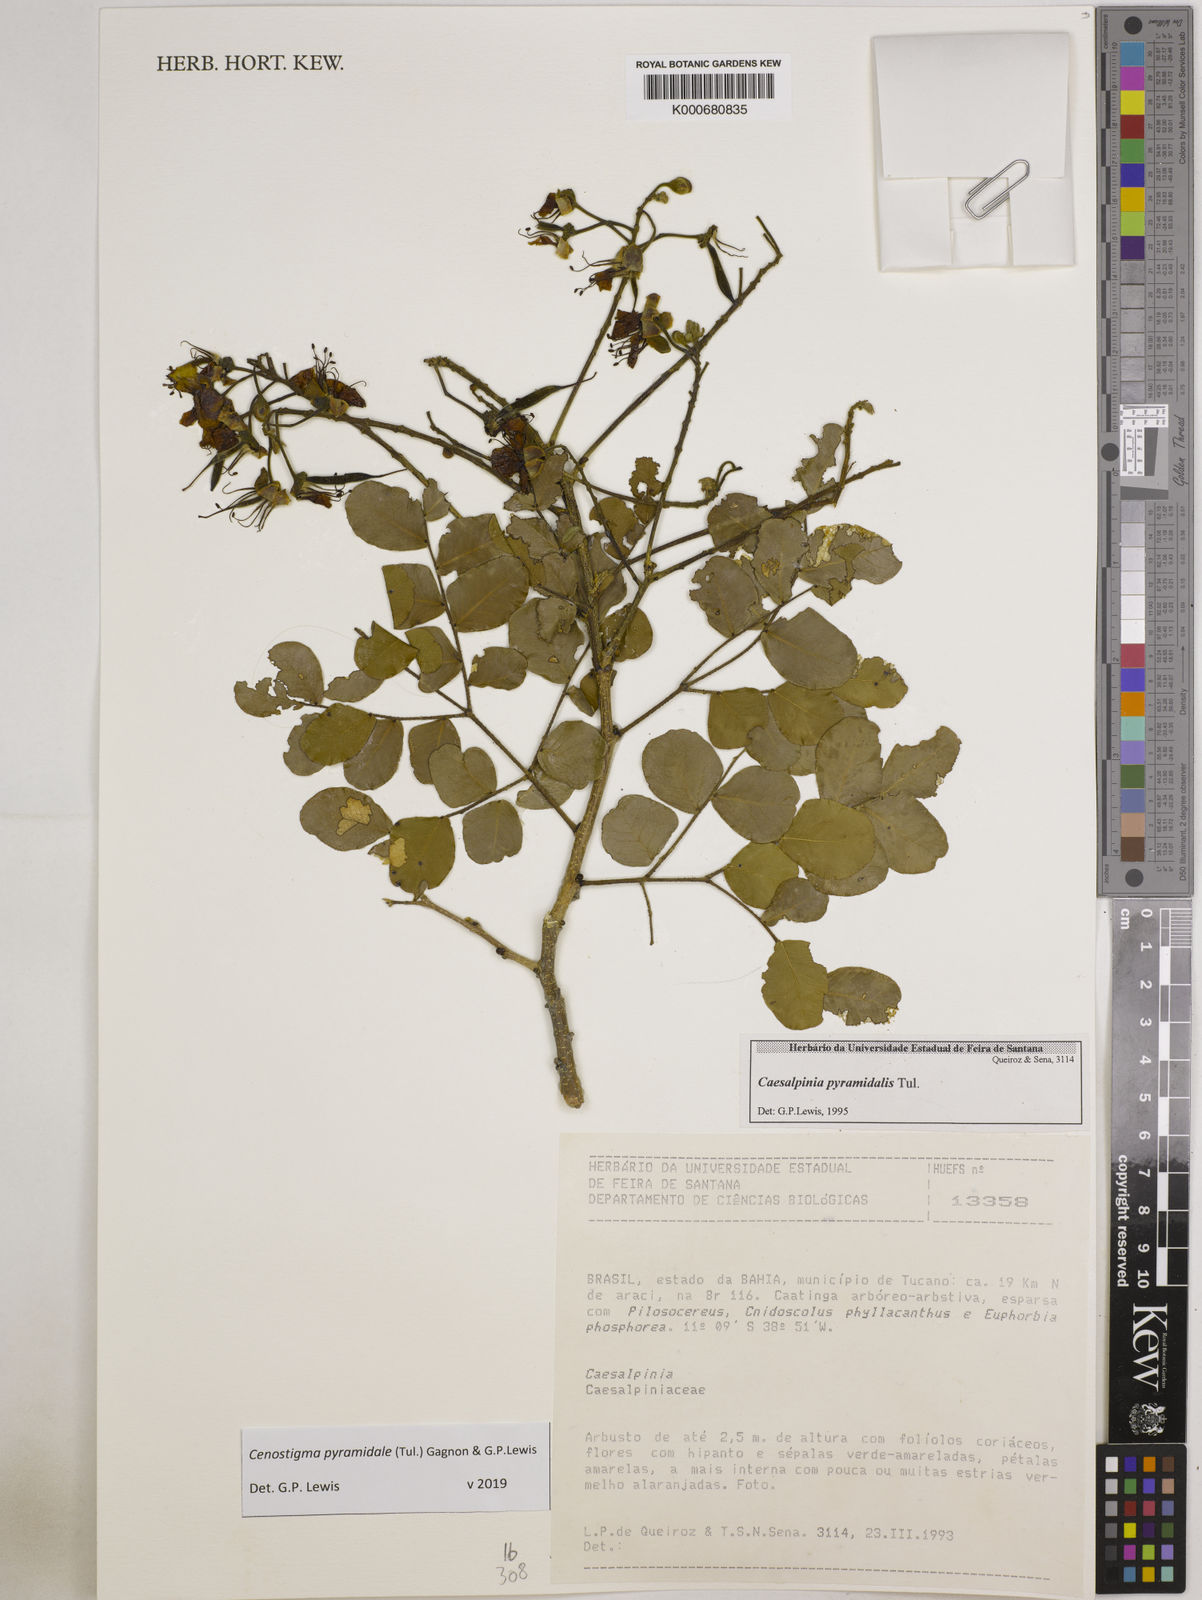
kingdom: Plantae
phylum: Tracheophyta
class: Magnoliopsida
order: Fabales
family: Fabaceae
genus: Caesalpinia
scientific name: Caesalpinia
